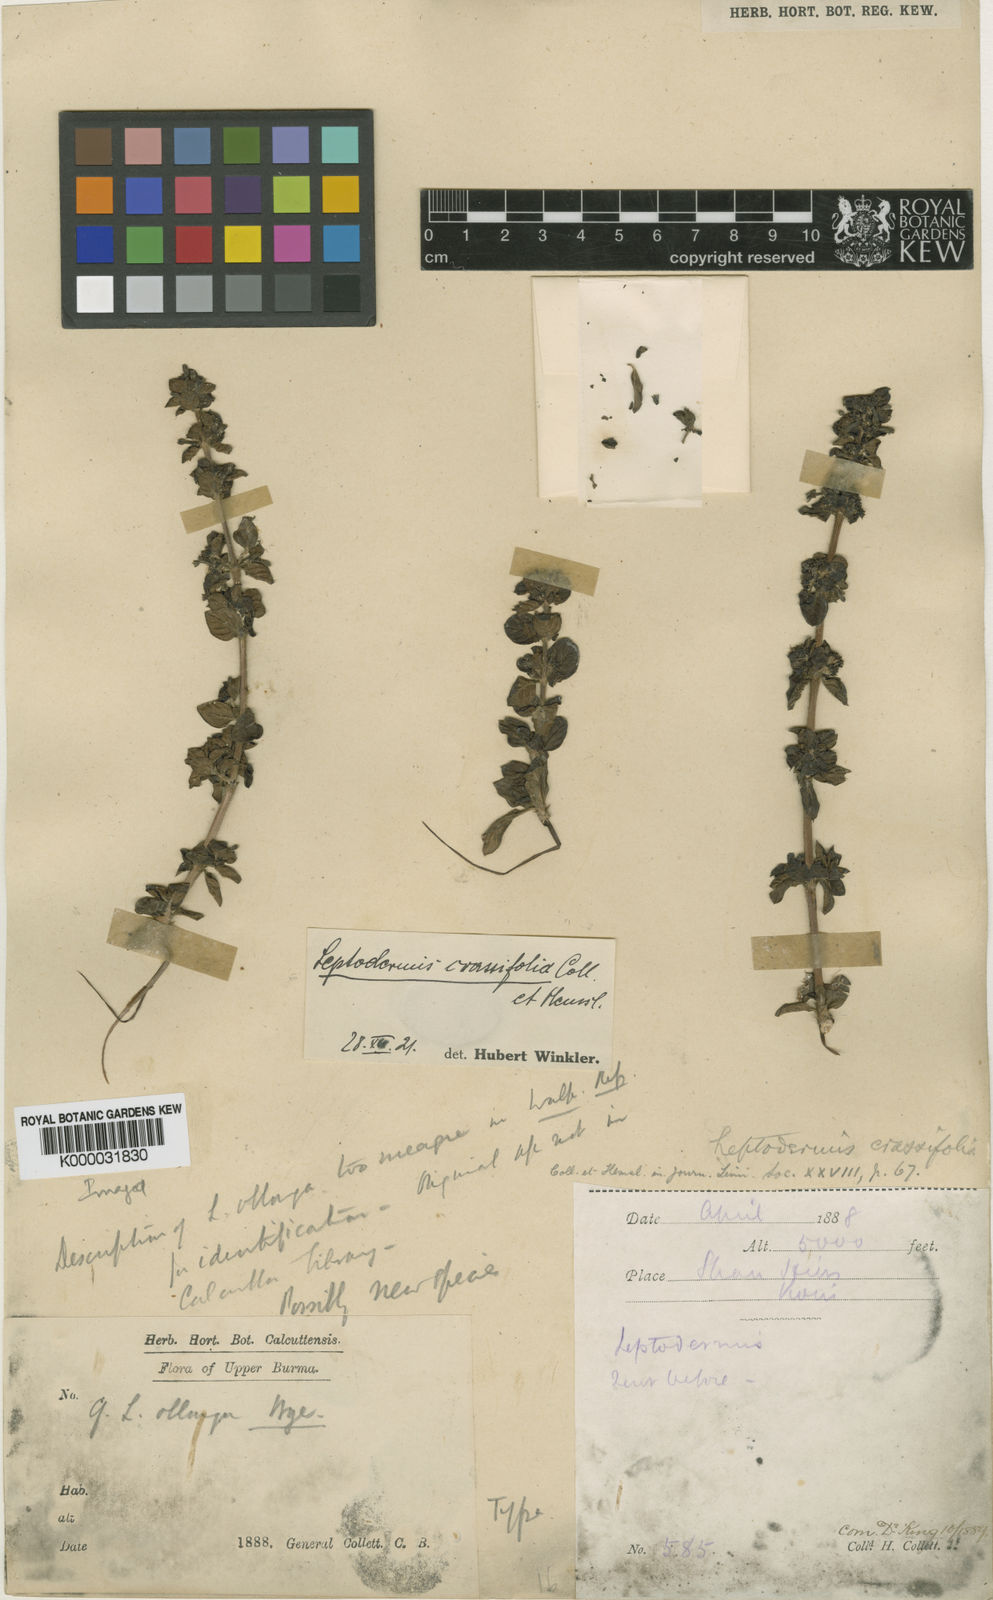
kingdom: Plantae
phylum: Tracheophyta
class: Magnoliopsida
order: Gentianales
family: Rubiaceae
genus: Leptodermis
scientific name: Leptodermis crassifolia
